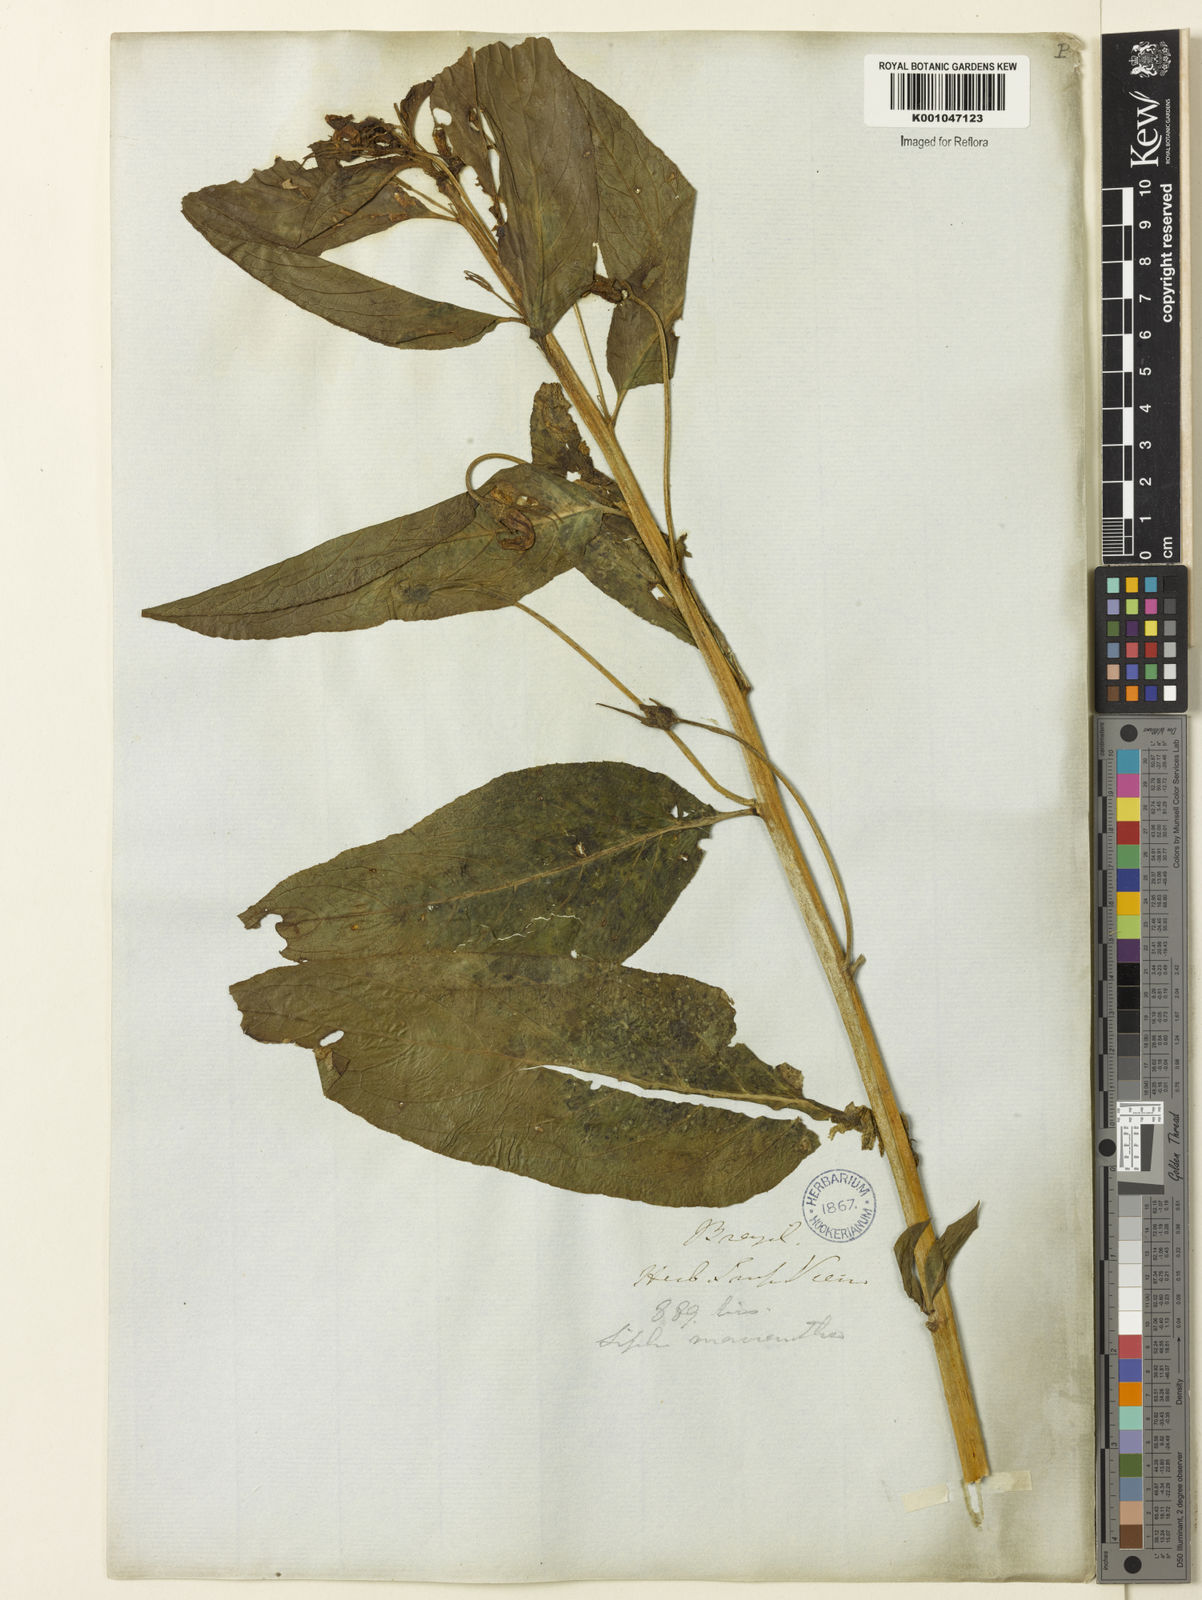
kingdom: Plantae
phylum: Tracheophyta
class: Magnoliopsida
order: Asterales
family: Campanulaceae
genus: Centropogon
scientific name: Centropogon cornutus
